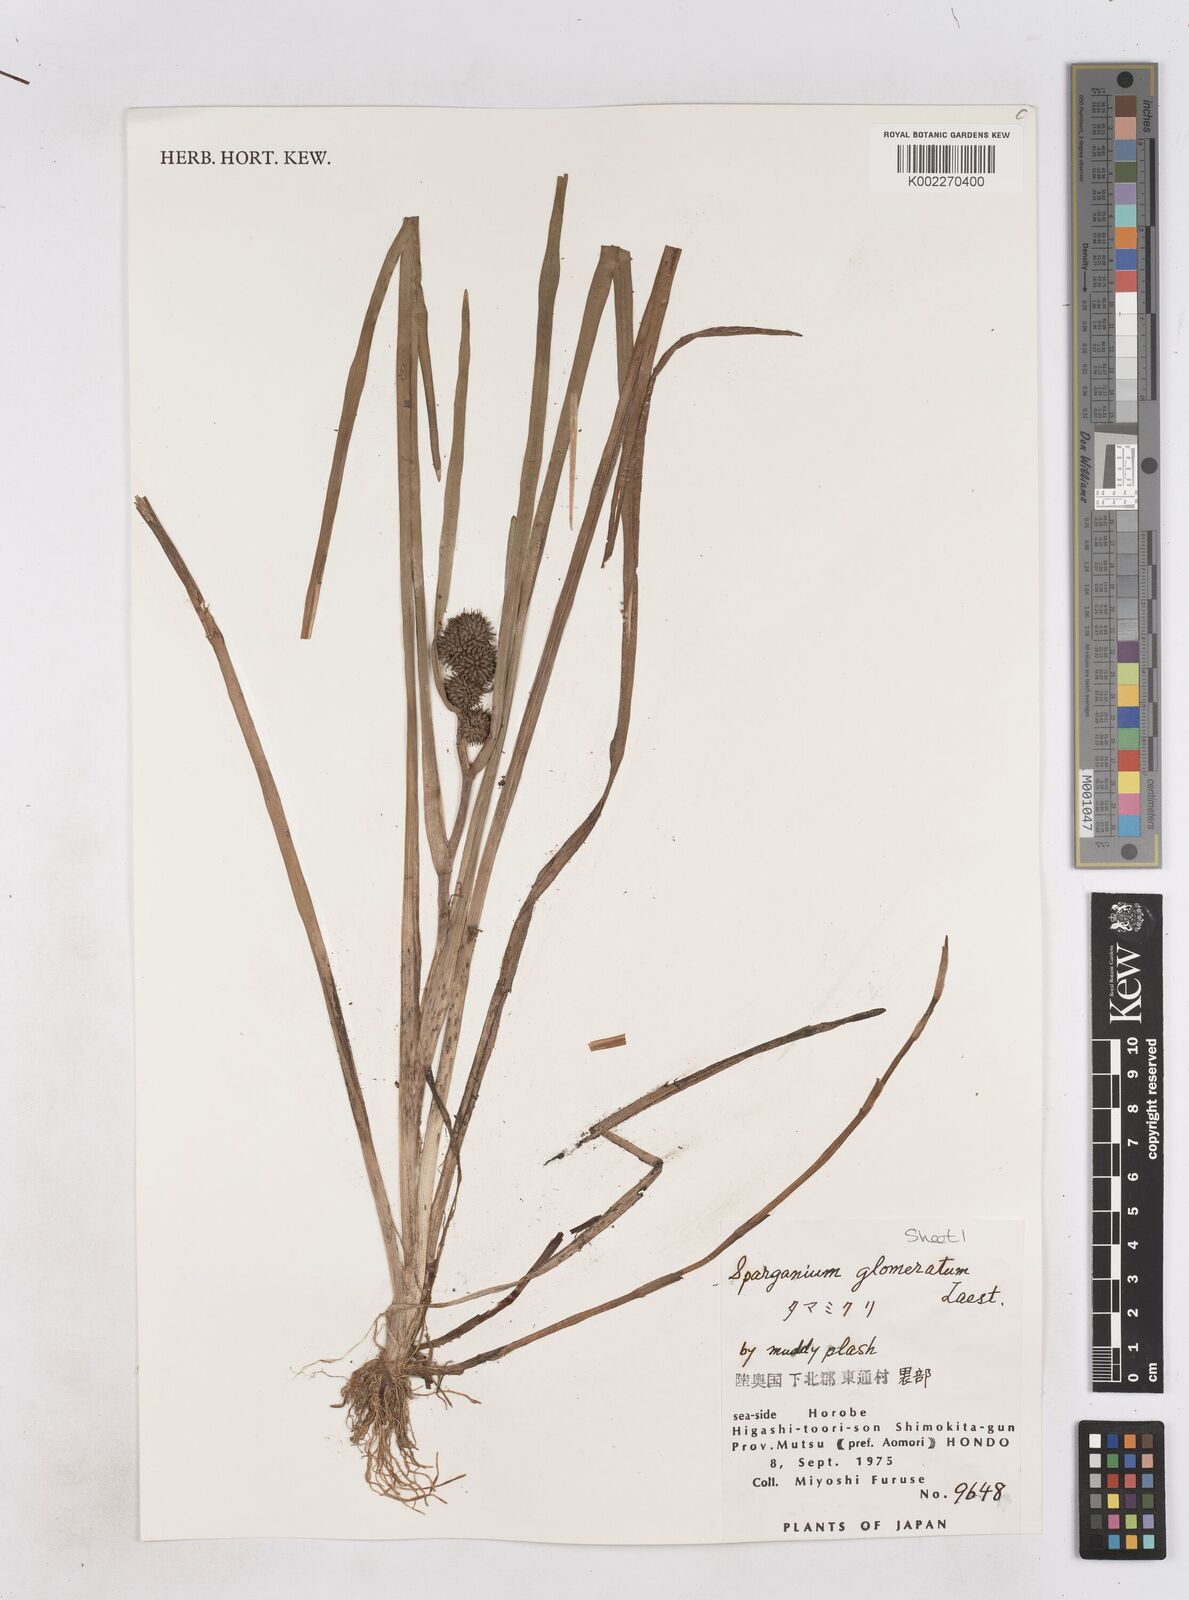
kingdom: Plantae
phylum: Tracheophyta
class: Liliopsida
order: Poales
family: Typhaceae
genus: Sparganium
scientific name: Sparganium glomeratum
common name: Clustered burreed
